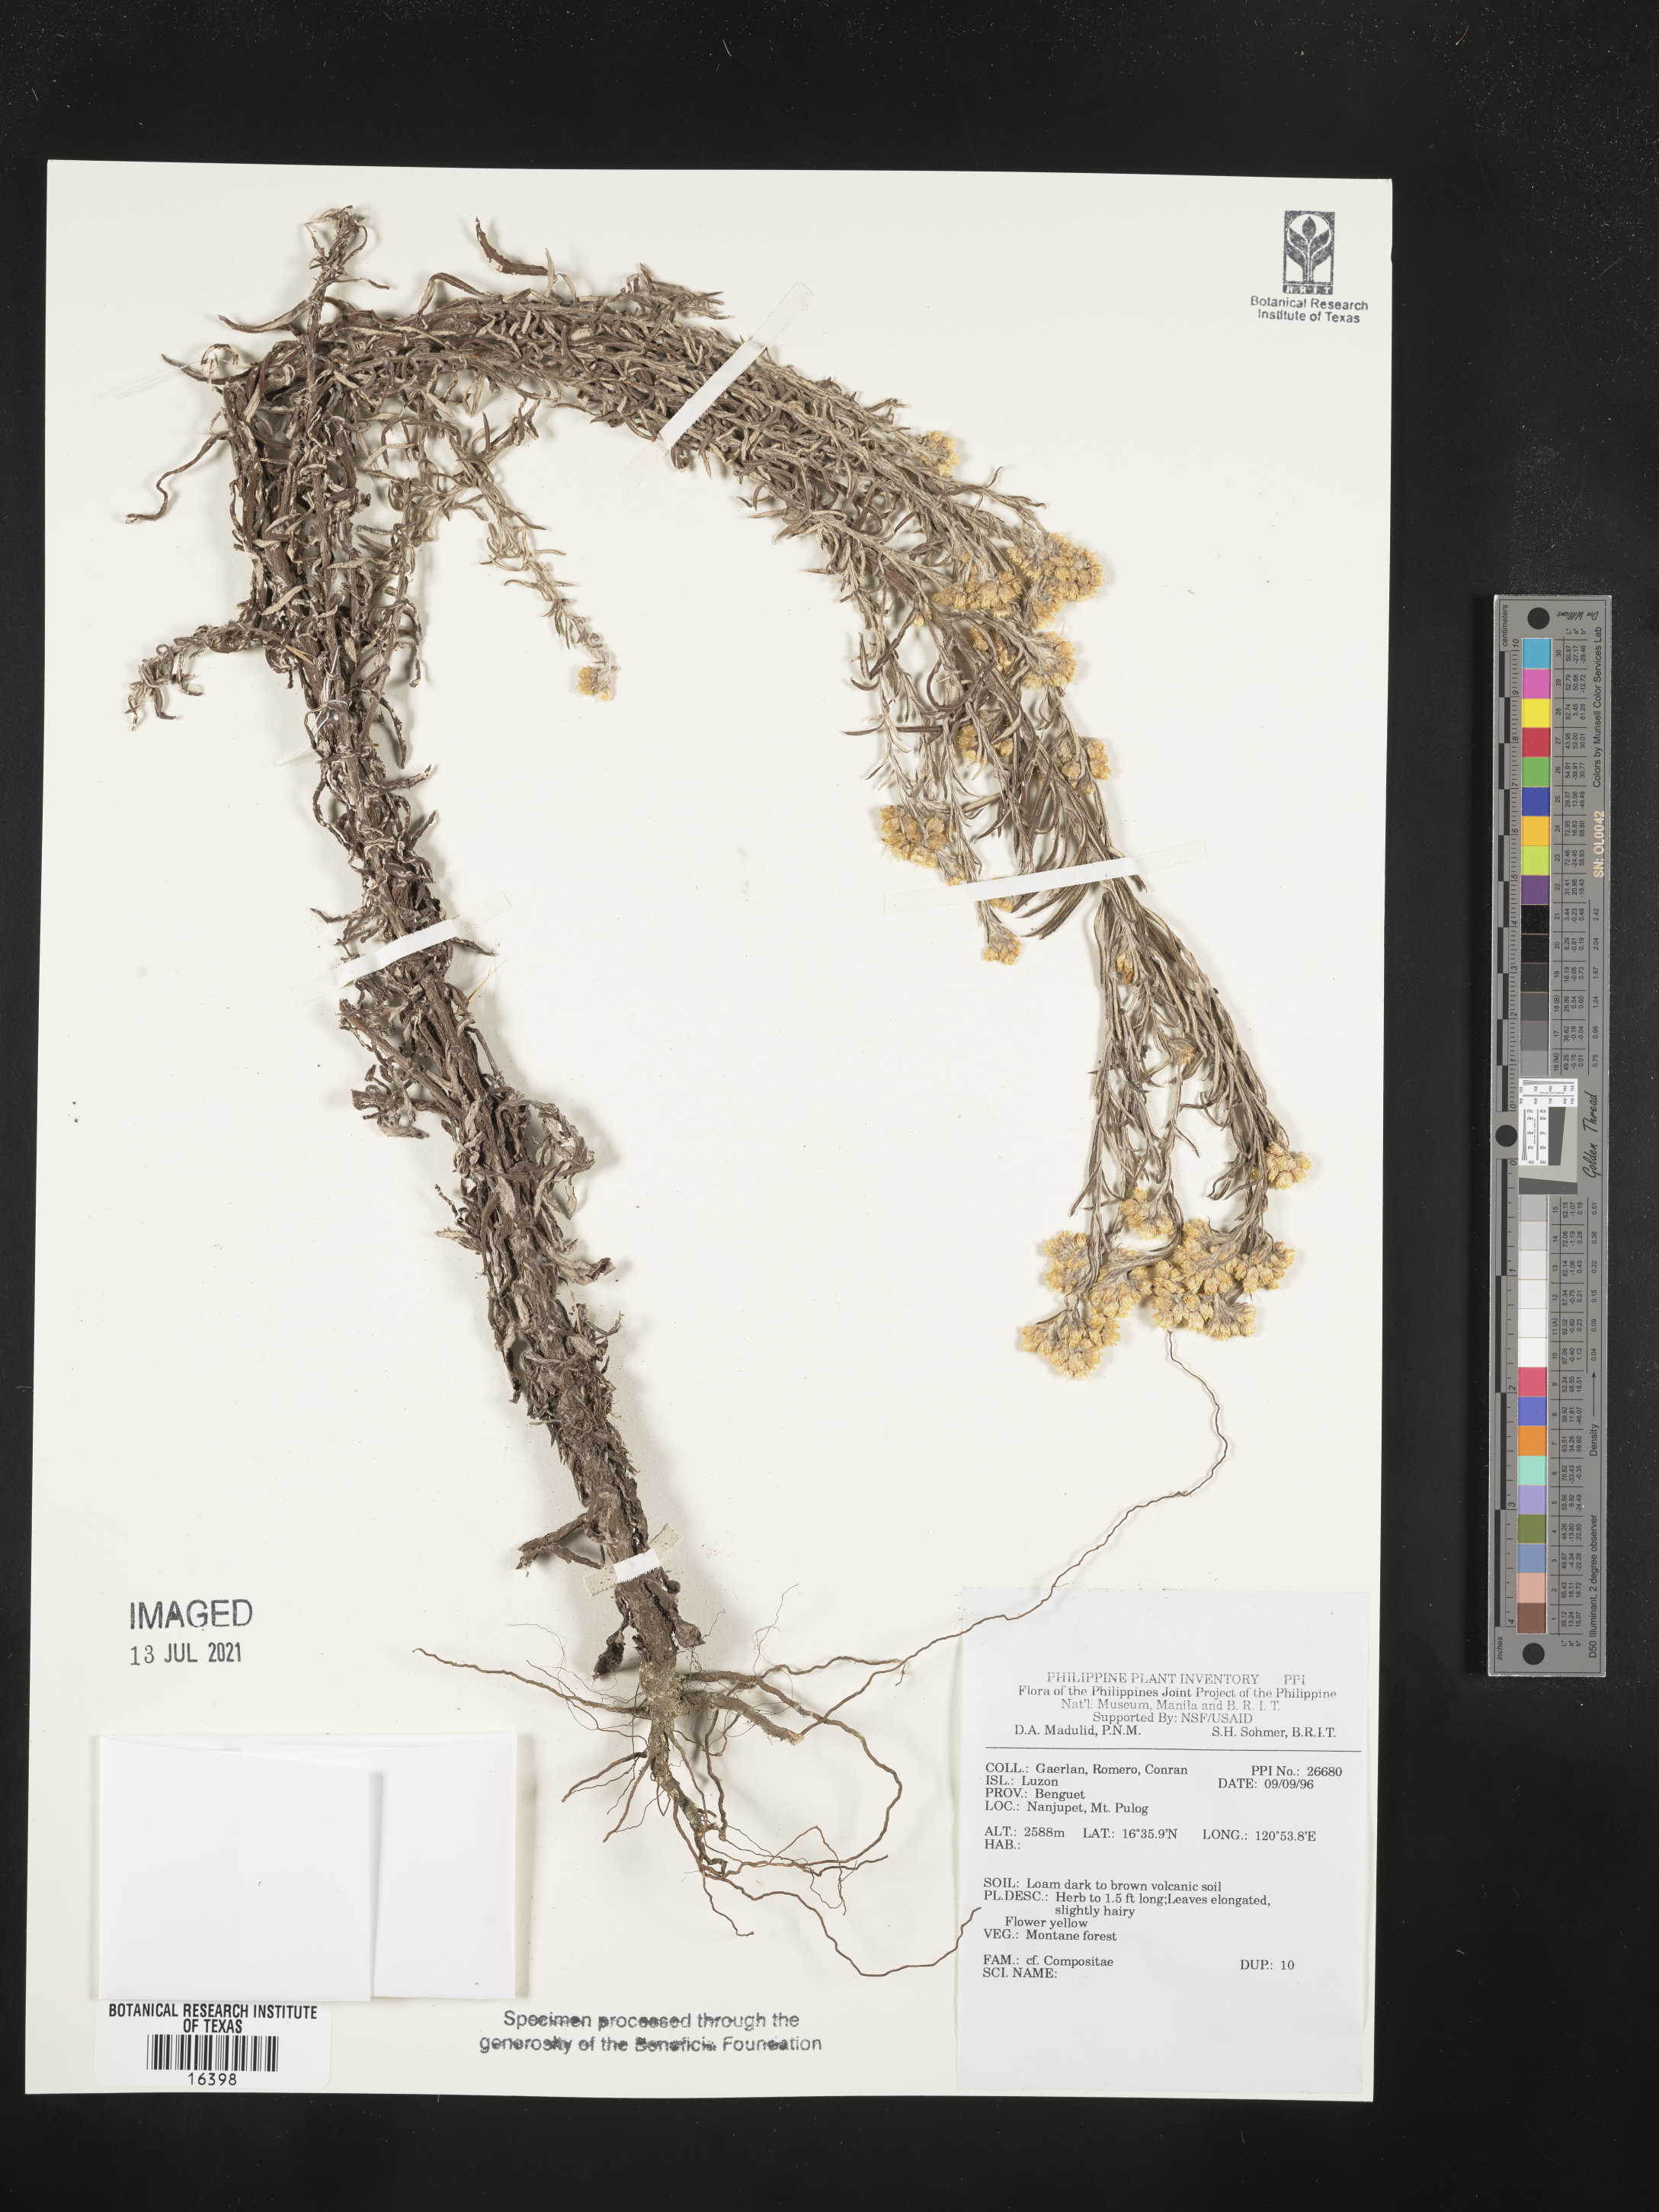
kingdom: Plantae
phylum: Tracheophyta
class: Magnoliopsida
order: Asterales
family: Asteraceae
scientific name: Asteraceae
